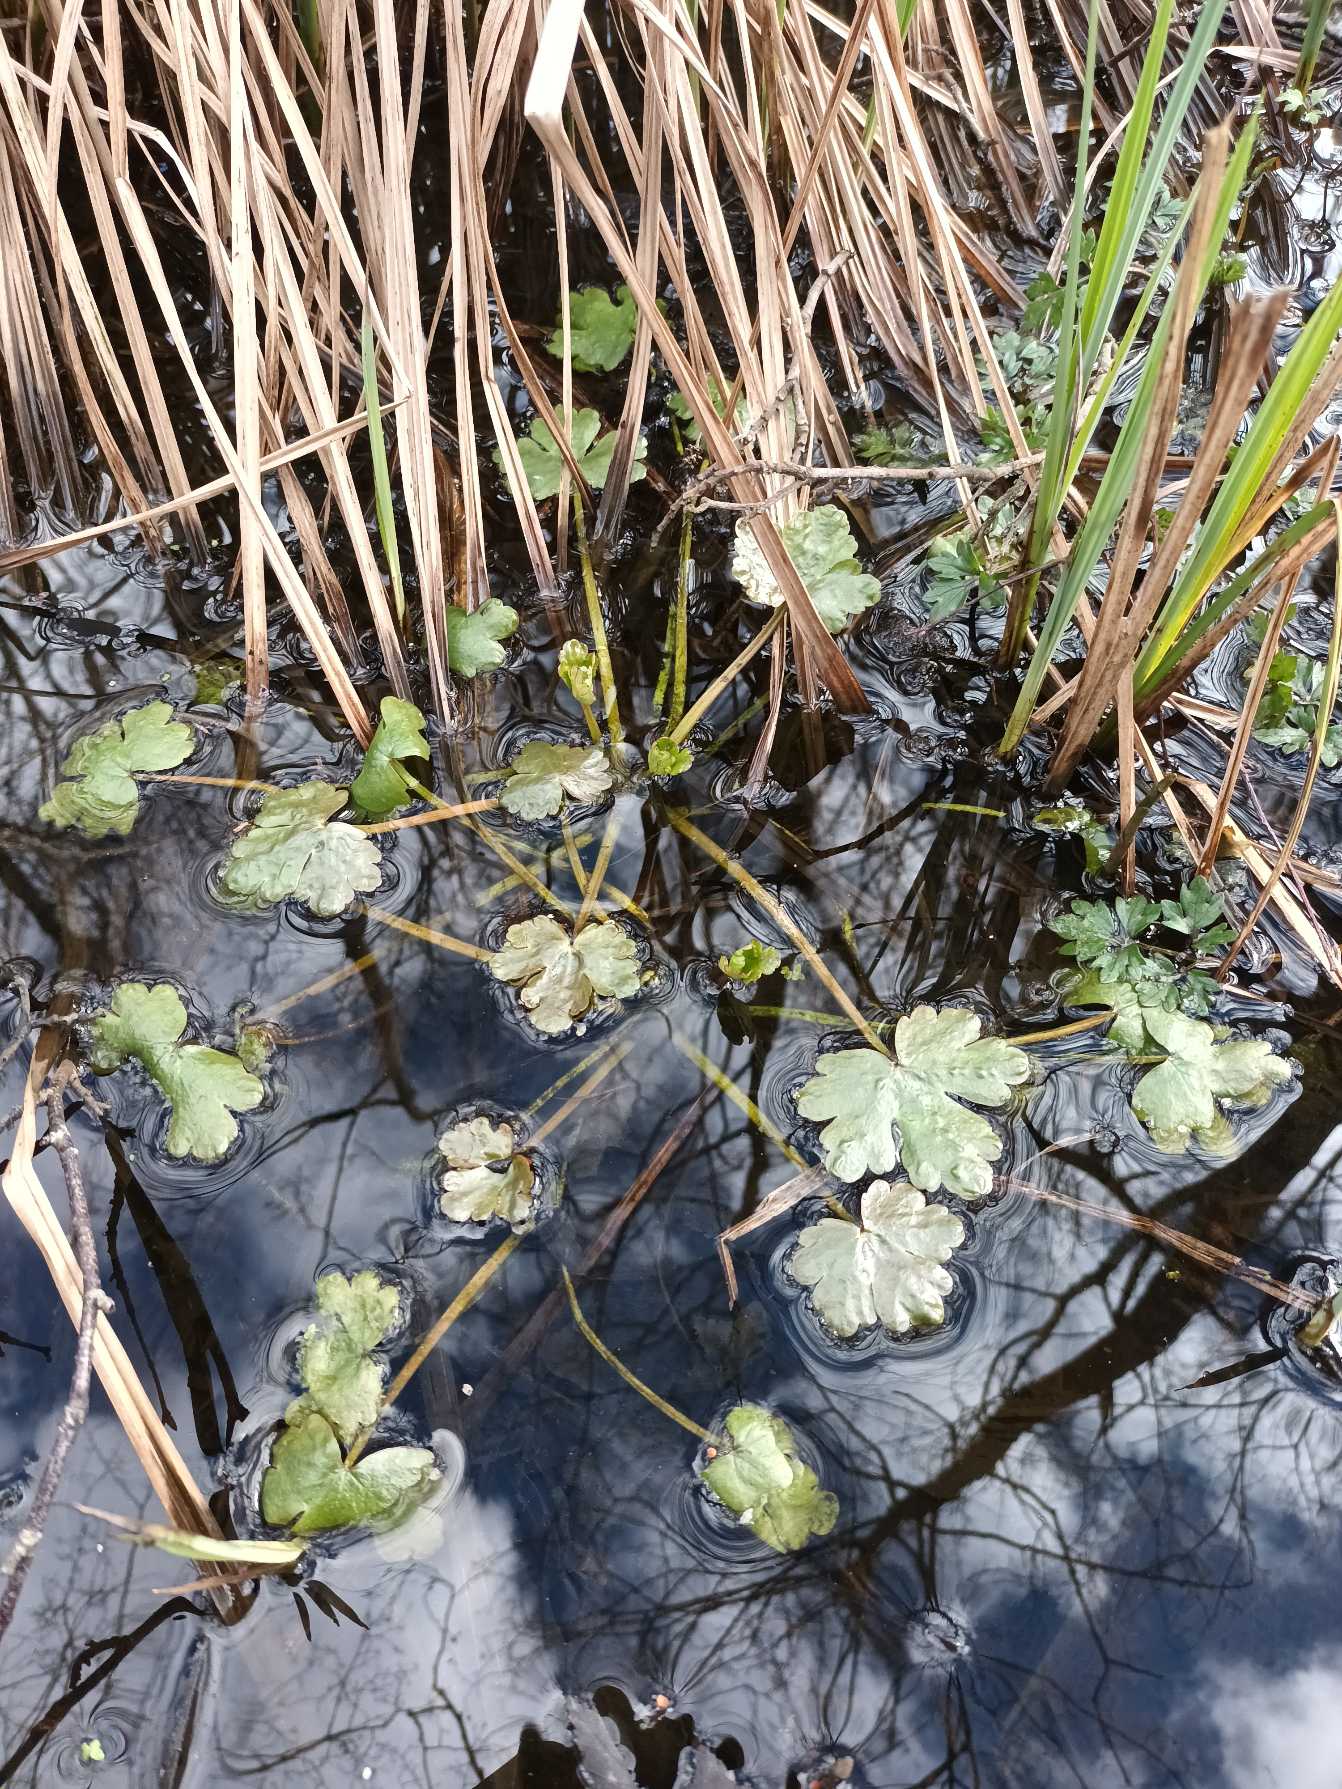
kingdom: Plantae
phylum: Tracheophyta
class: Magnoliopsida
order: Ranunculales
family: Ranunculaceae
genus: Ranunculus
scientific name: Ranunculus sceleratus
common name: Tigger-ranunkel
